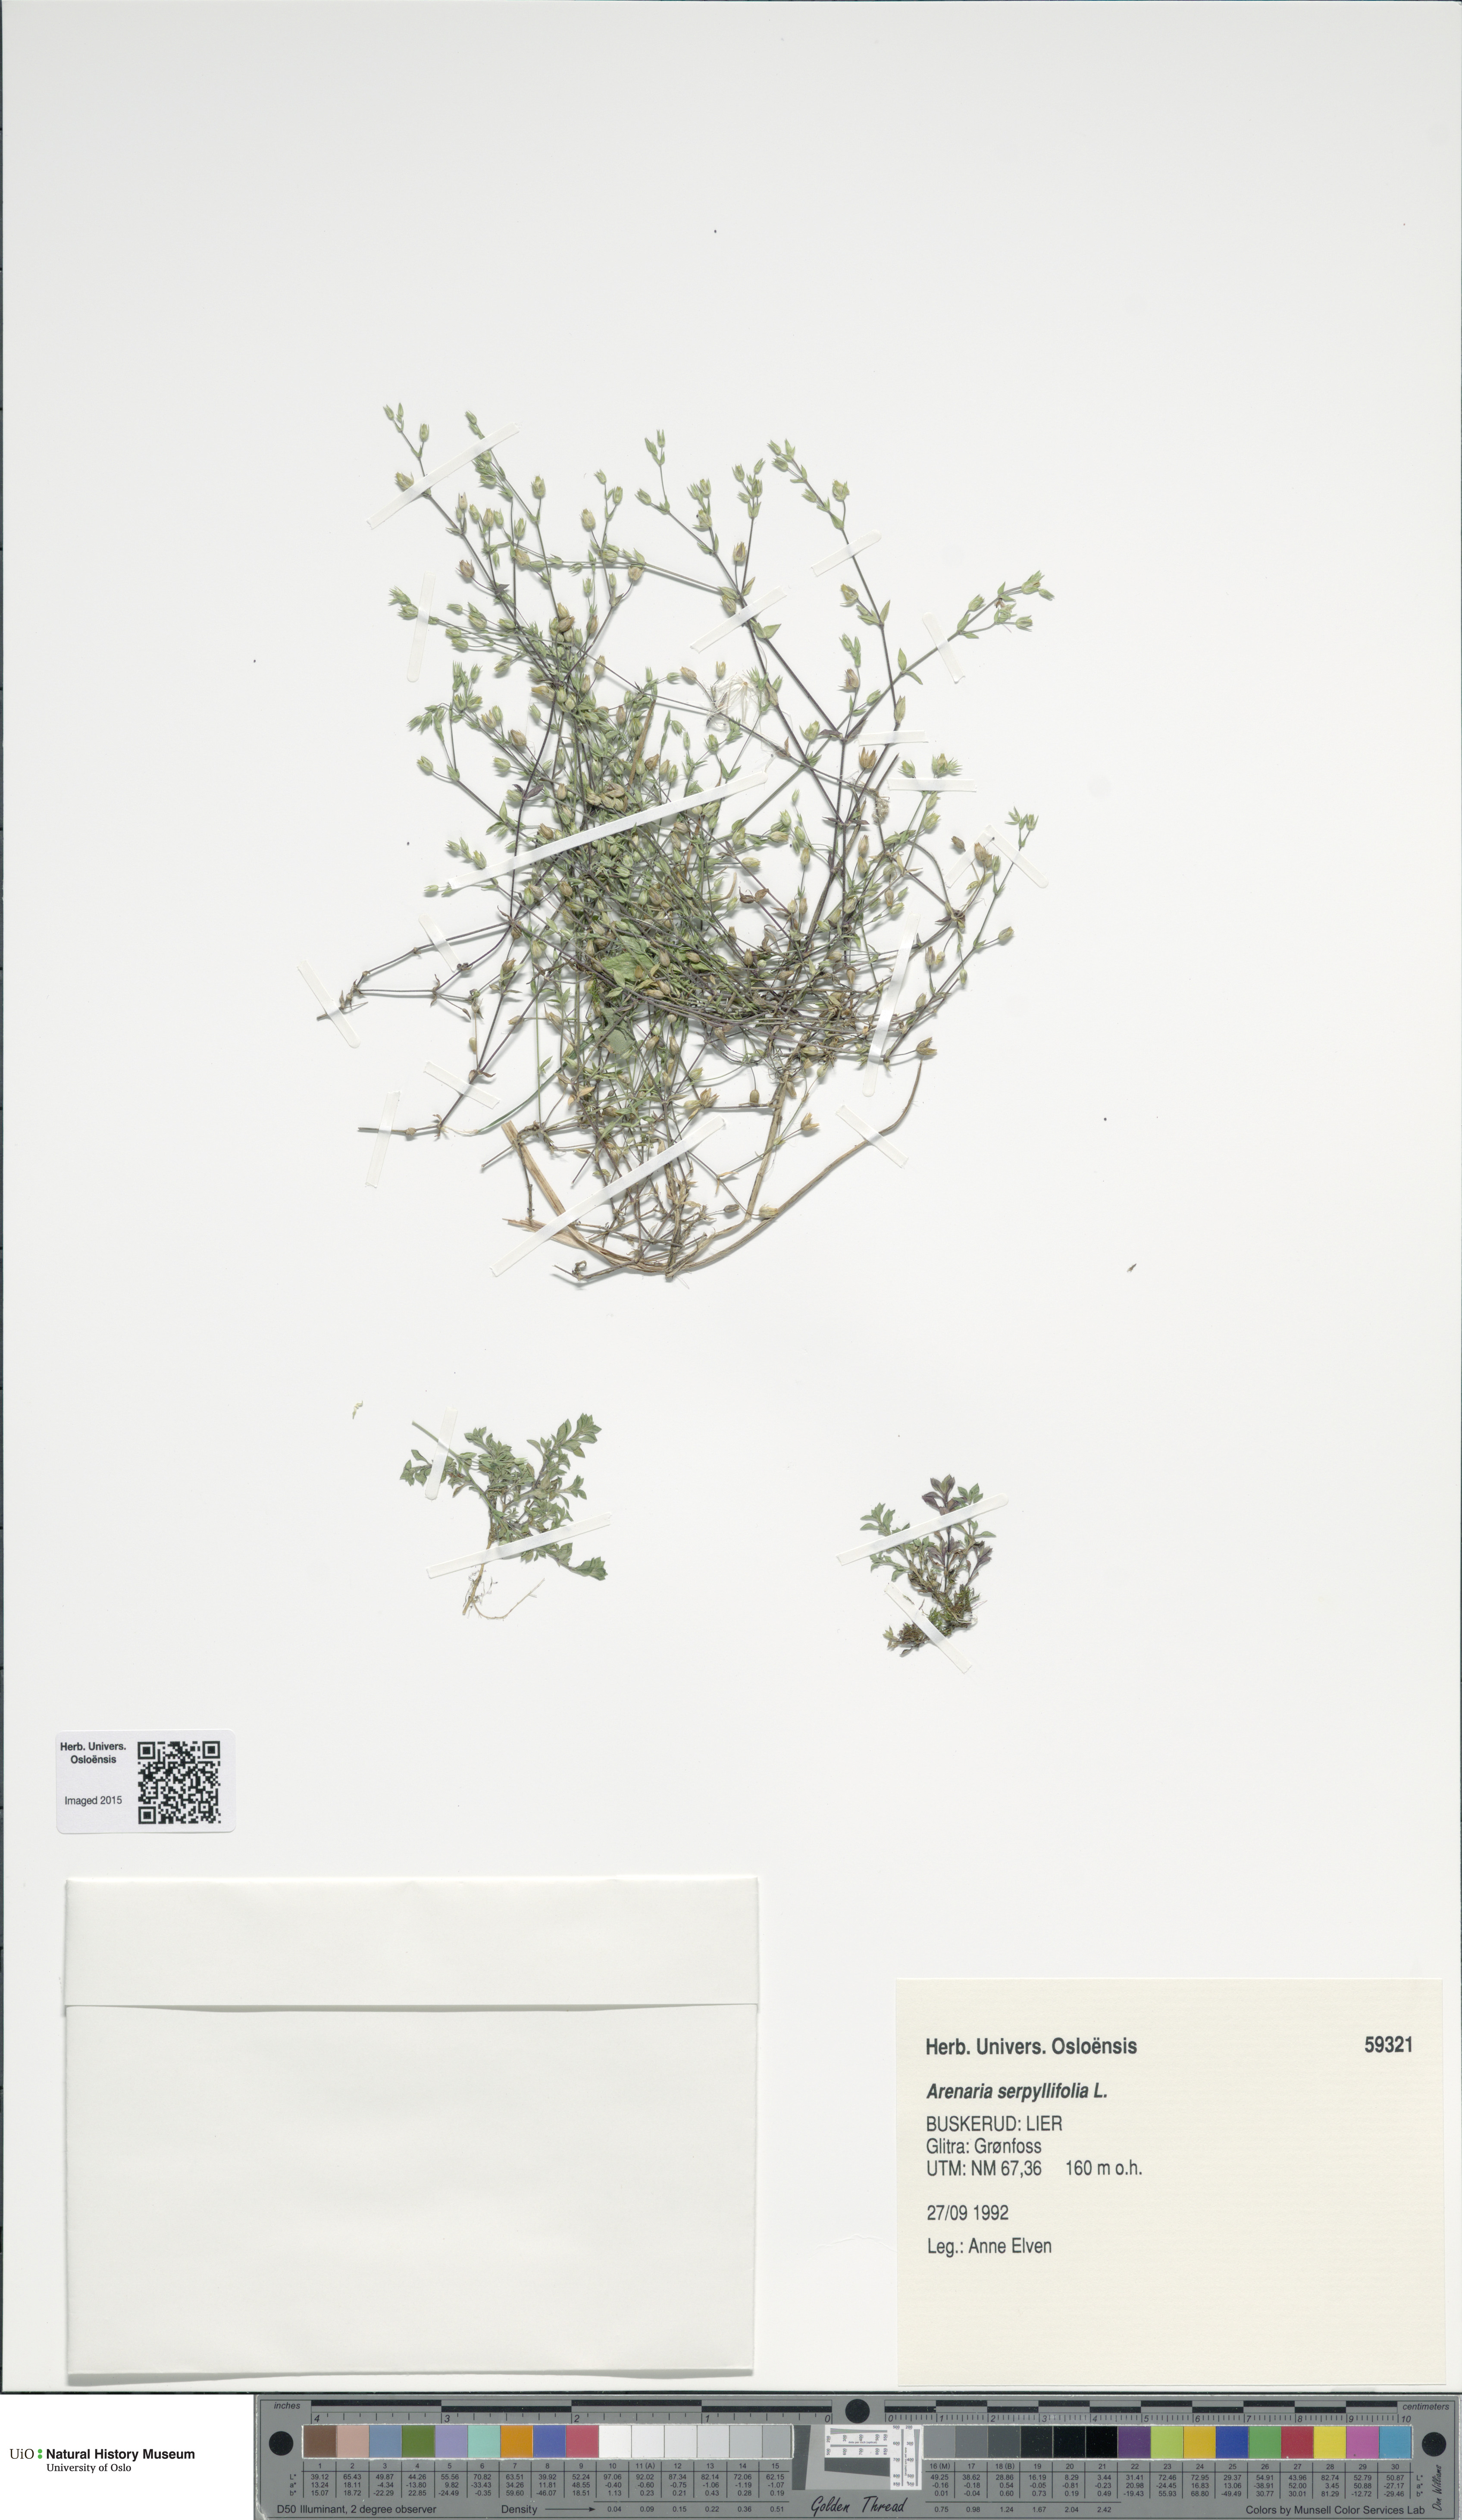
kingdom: Plantae
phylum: Tracheophyta
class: Magnoliopsida
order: Caryophyllales
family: Caryophyllaceae
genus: Arenaria
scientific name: Arenaria serpyllifolia
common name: Thyme-leaved sandwort
